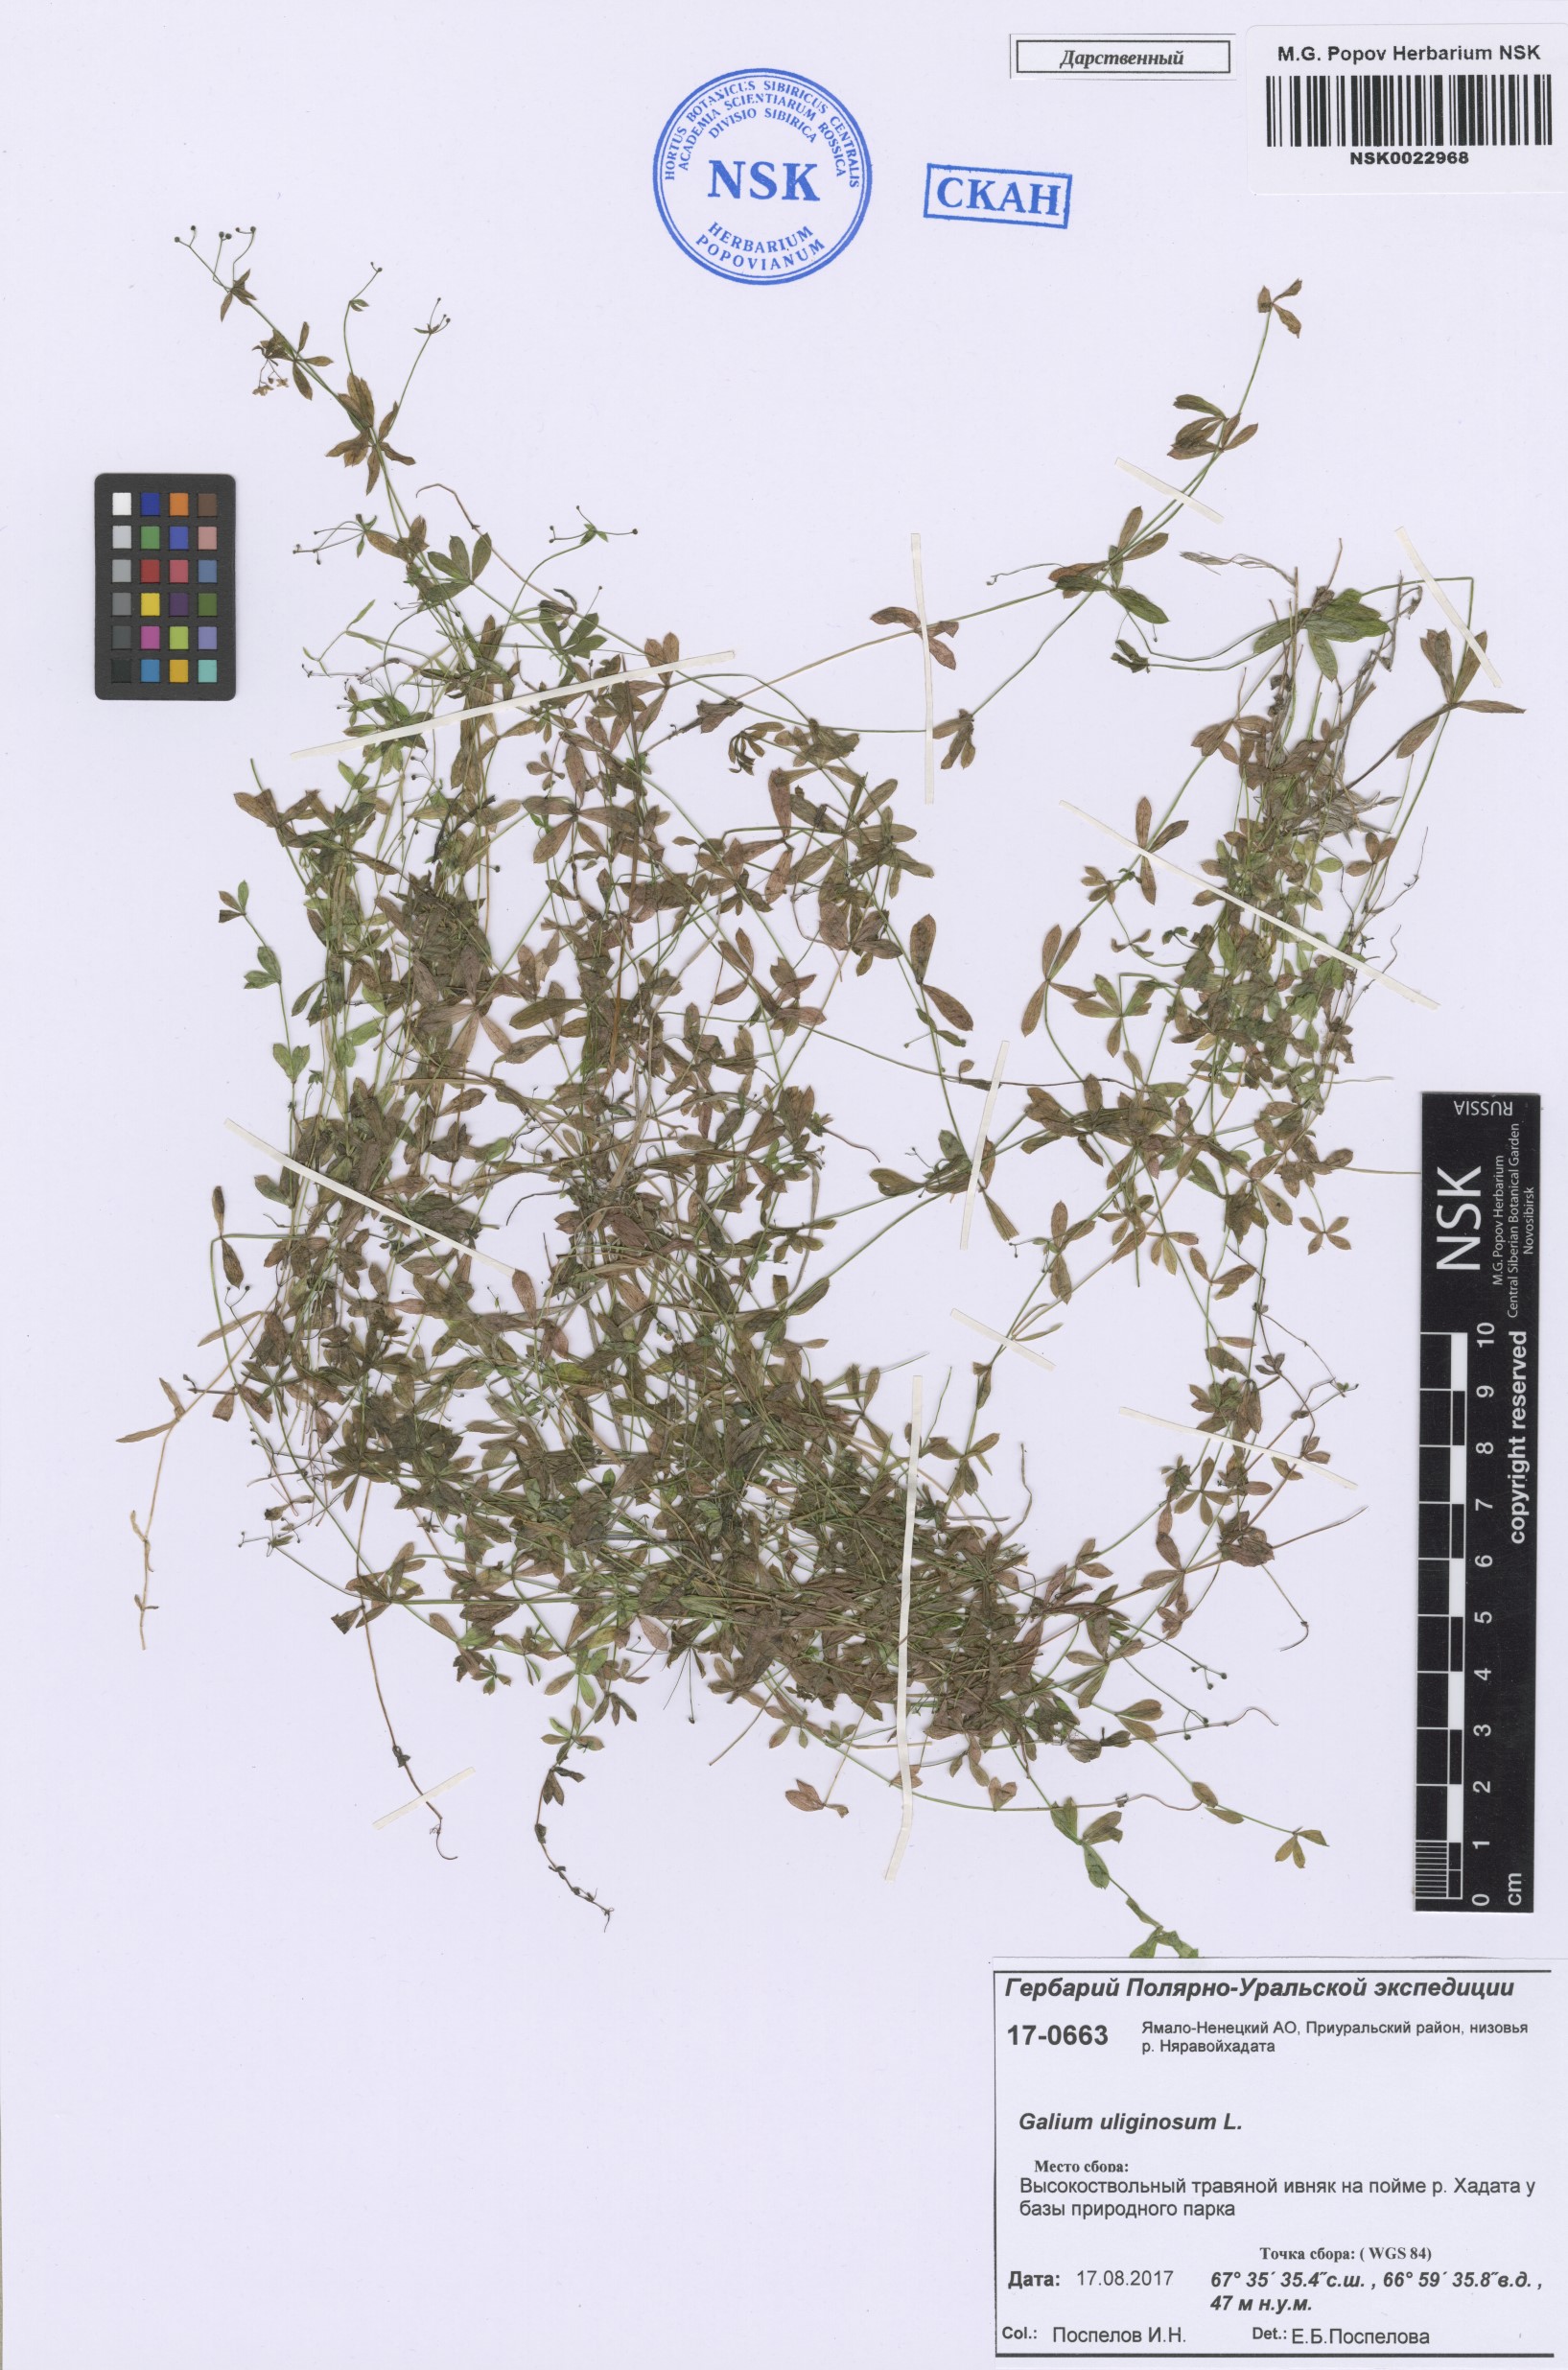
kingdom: Plantae
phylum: Tracheophyta
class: Magnoliopsida
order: Gentianales
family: Rubiaceae
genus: Galium
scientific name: Galium uliginosum
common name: Fen bedstraw
